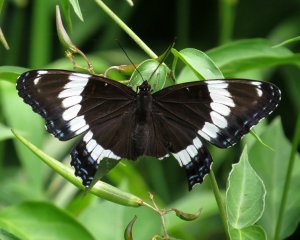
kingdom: Animalia
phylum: Arthropoda
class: Insecta
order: Lepidoptera
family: Nymphalidae
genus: Limenitis
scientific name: Limenitis arthemis
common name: Red-spotted Admiral
